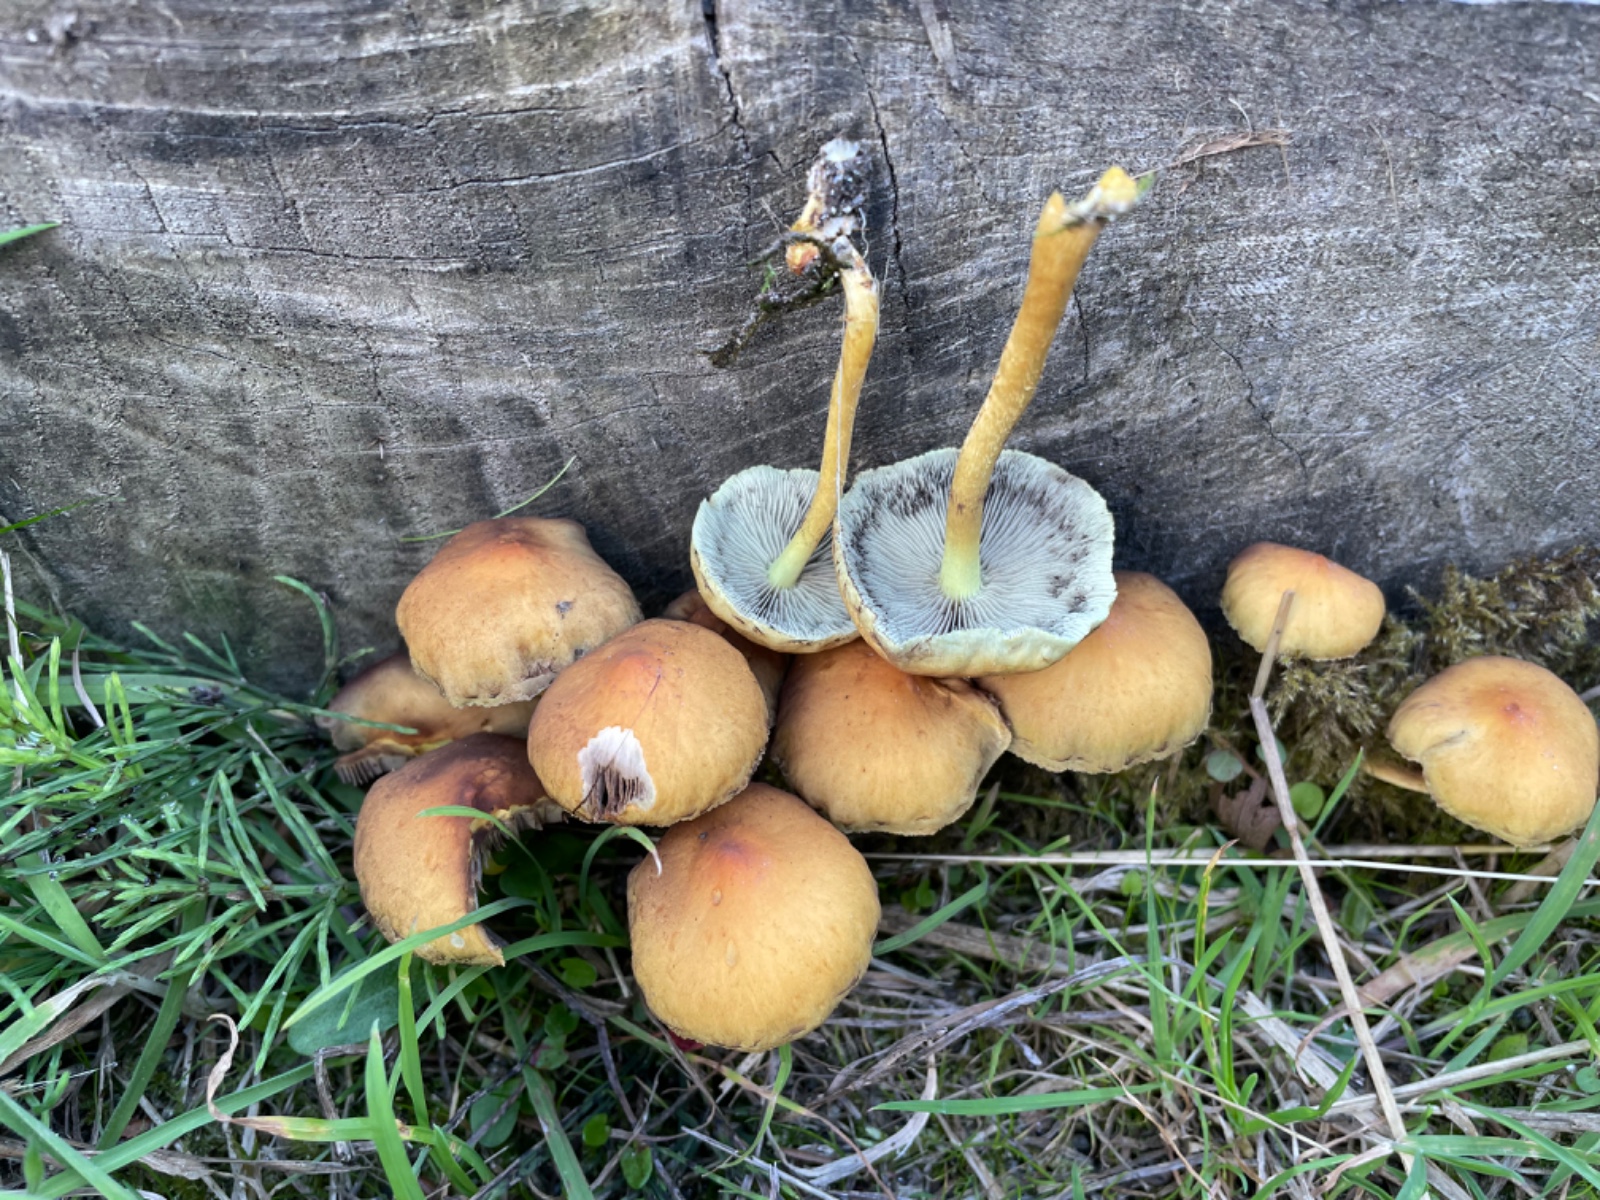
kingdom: Fungi
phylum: Basidiomycota
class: Agaricomycetes
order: Agaricales
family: Strophariaceae
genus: Hypholoma
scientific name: Hypholoma fasciculare
